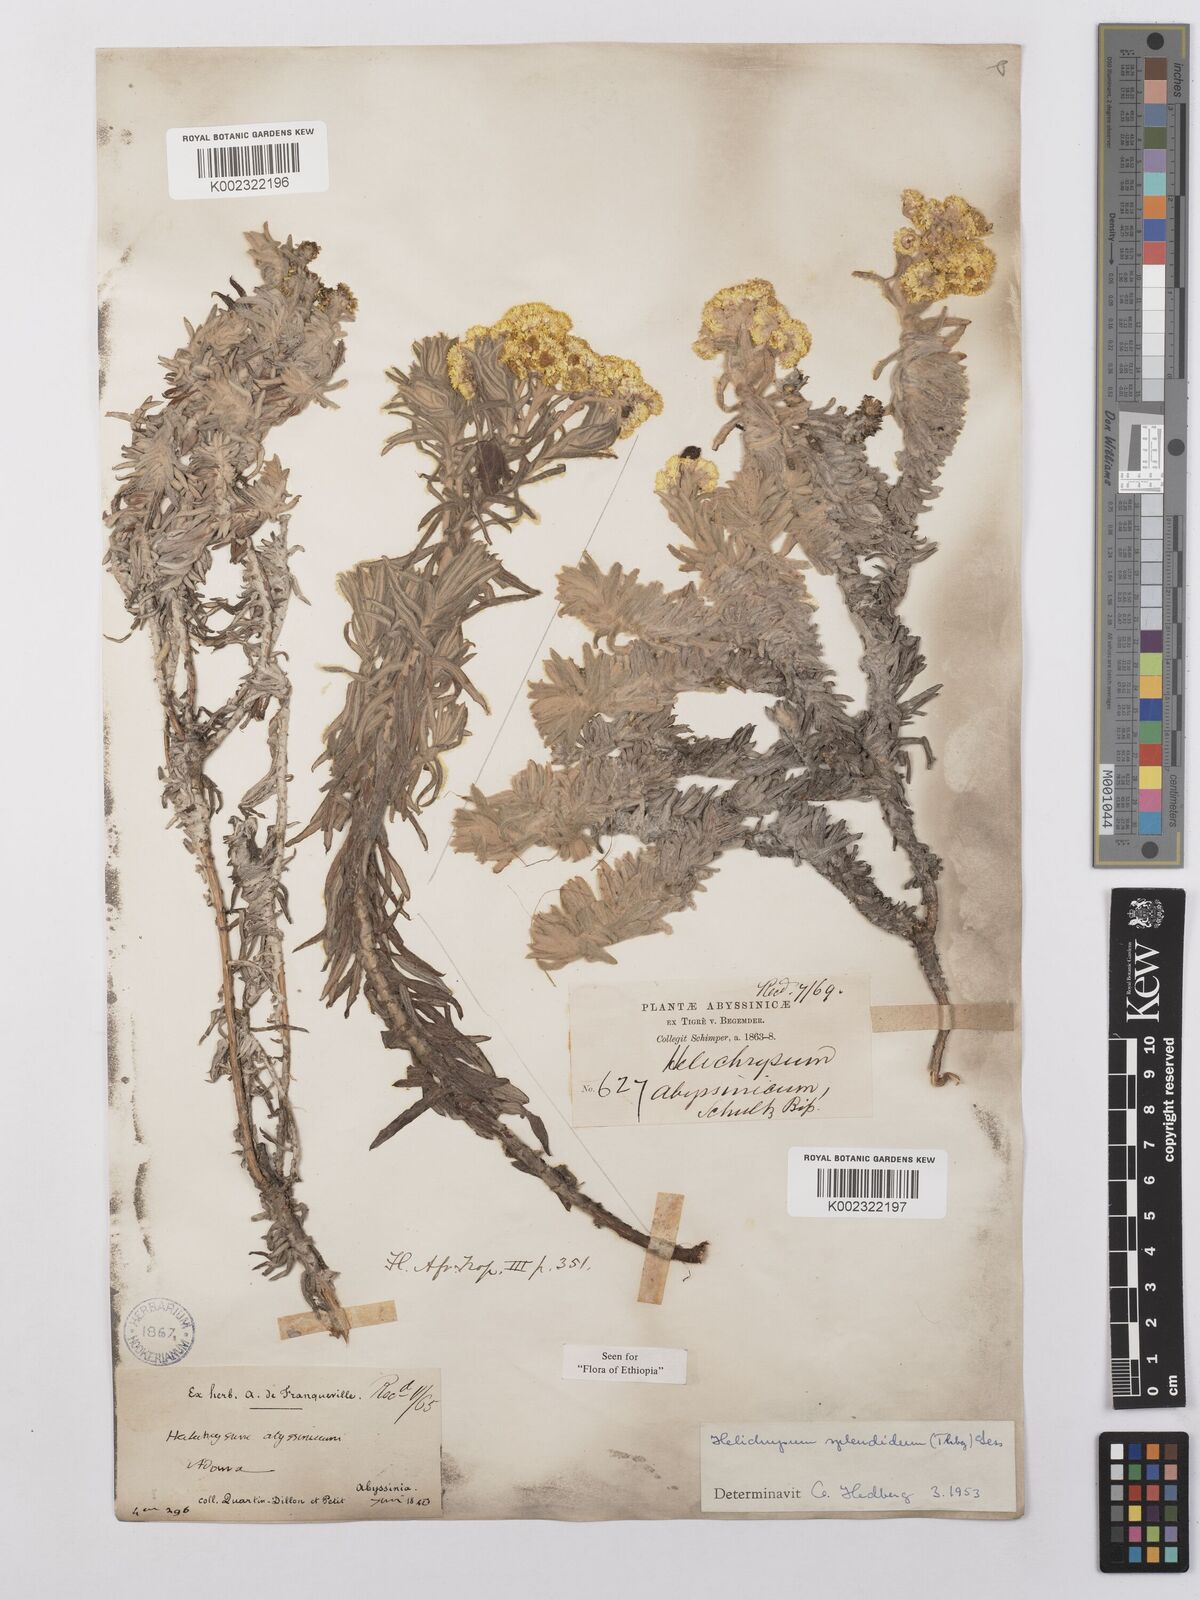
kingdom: Plantae
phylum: Tracheophyta
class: Magnoliopsida
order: Asterales
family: Asteraceae
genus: Helichrysum
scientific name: Helichrysum splendidum
